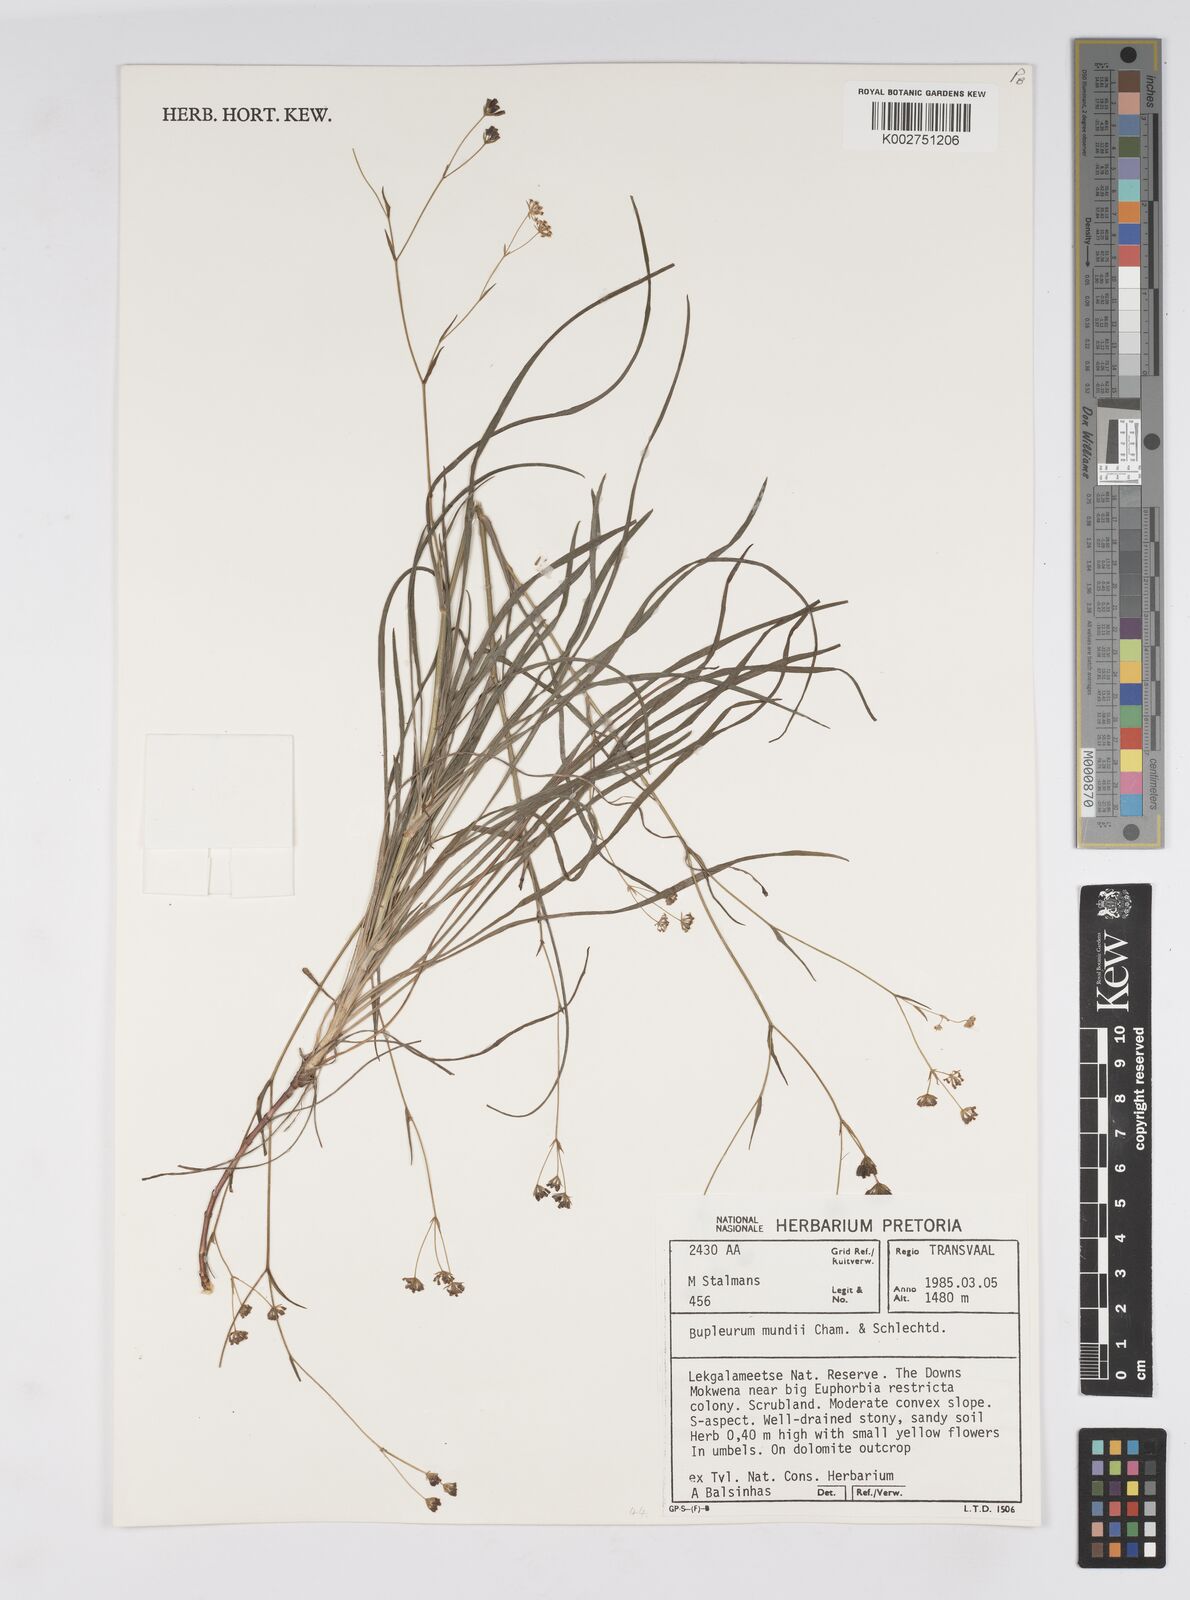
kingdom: Plantae
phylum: Tracheophyta
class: Magnoliopsida
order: Apiales
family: Apiaceae
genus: Bupleurum
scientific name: Bupleurum mundii
